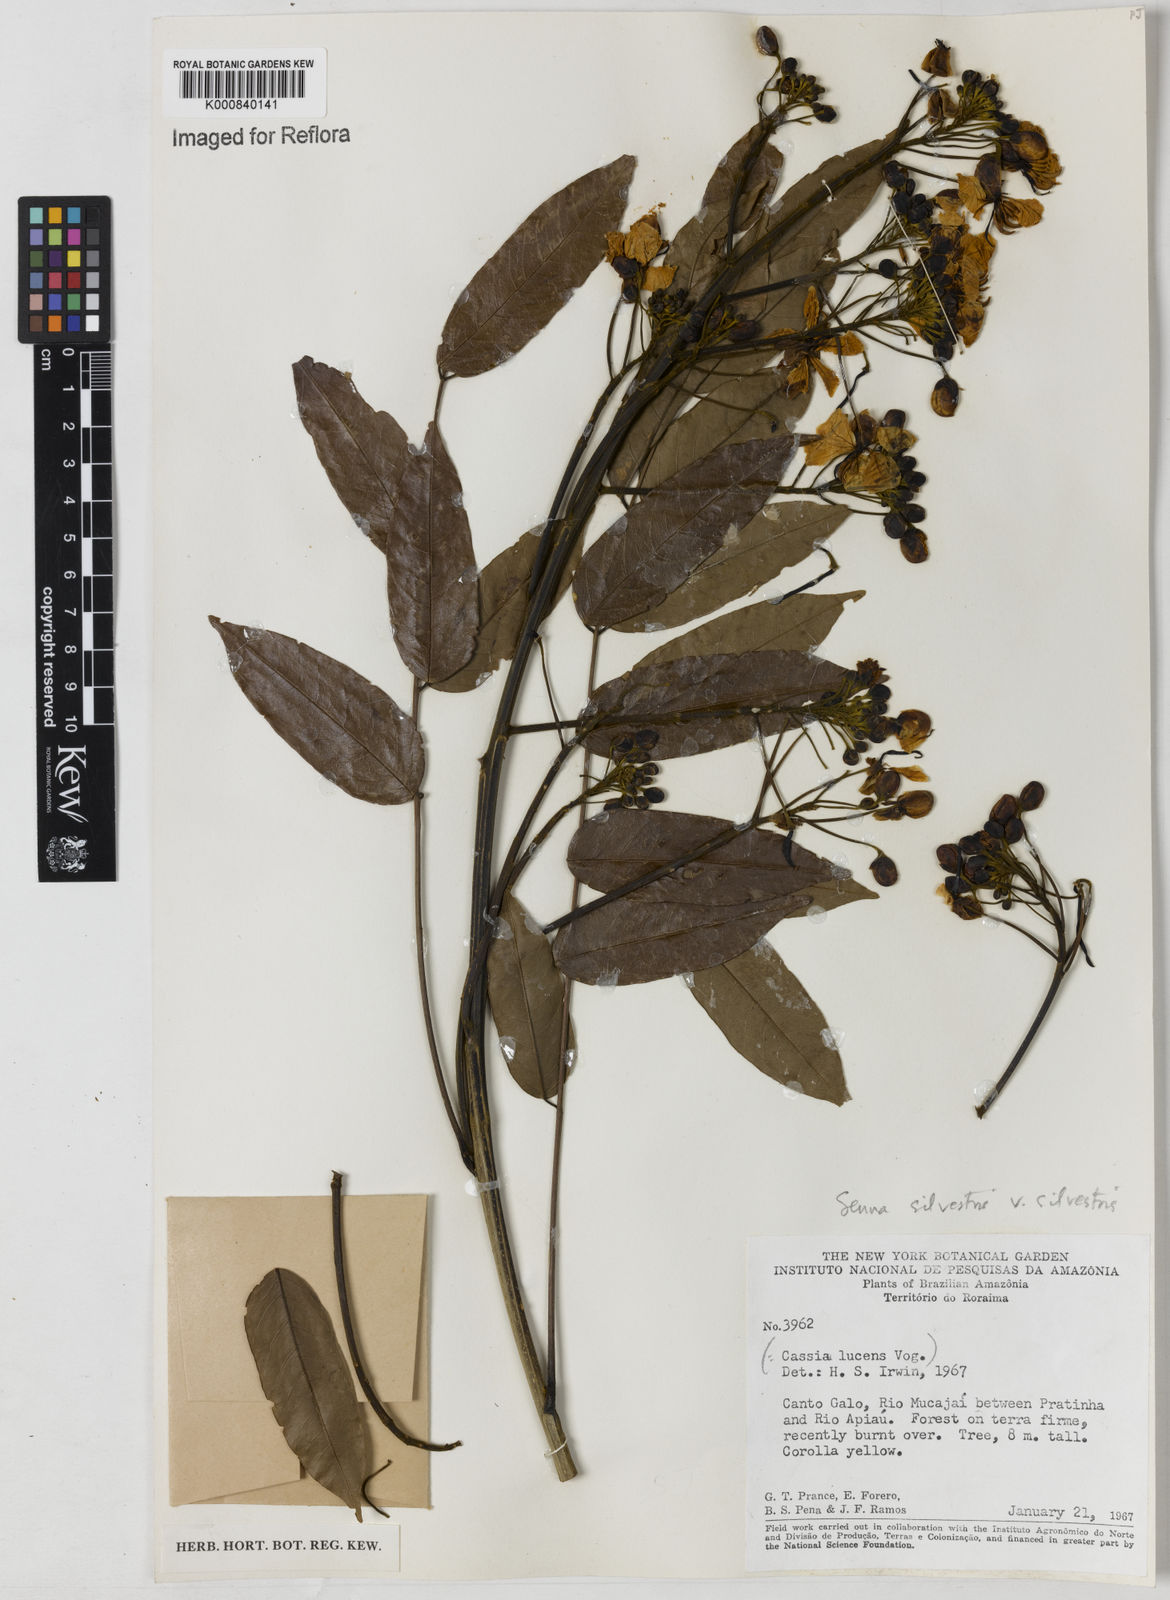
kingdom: Plantae
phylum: Tracheophyta
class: Magnoliopsida
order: Fabales
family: Fabaceae
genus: Senna
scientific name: Senna silvestris
